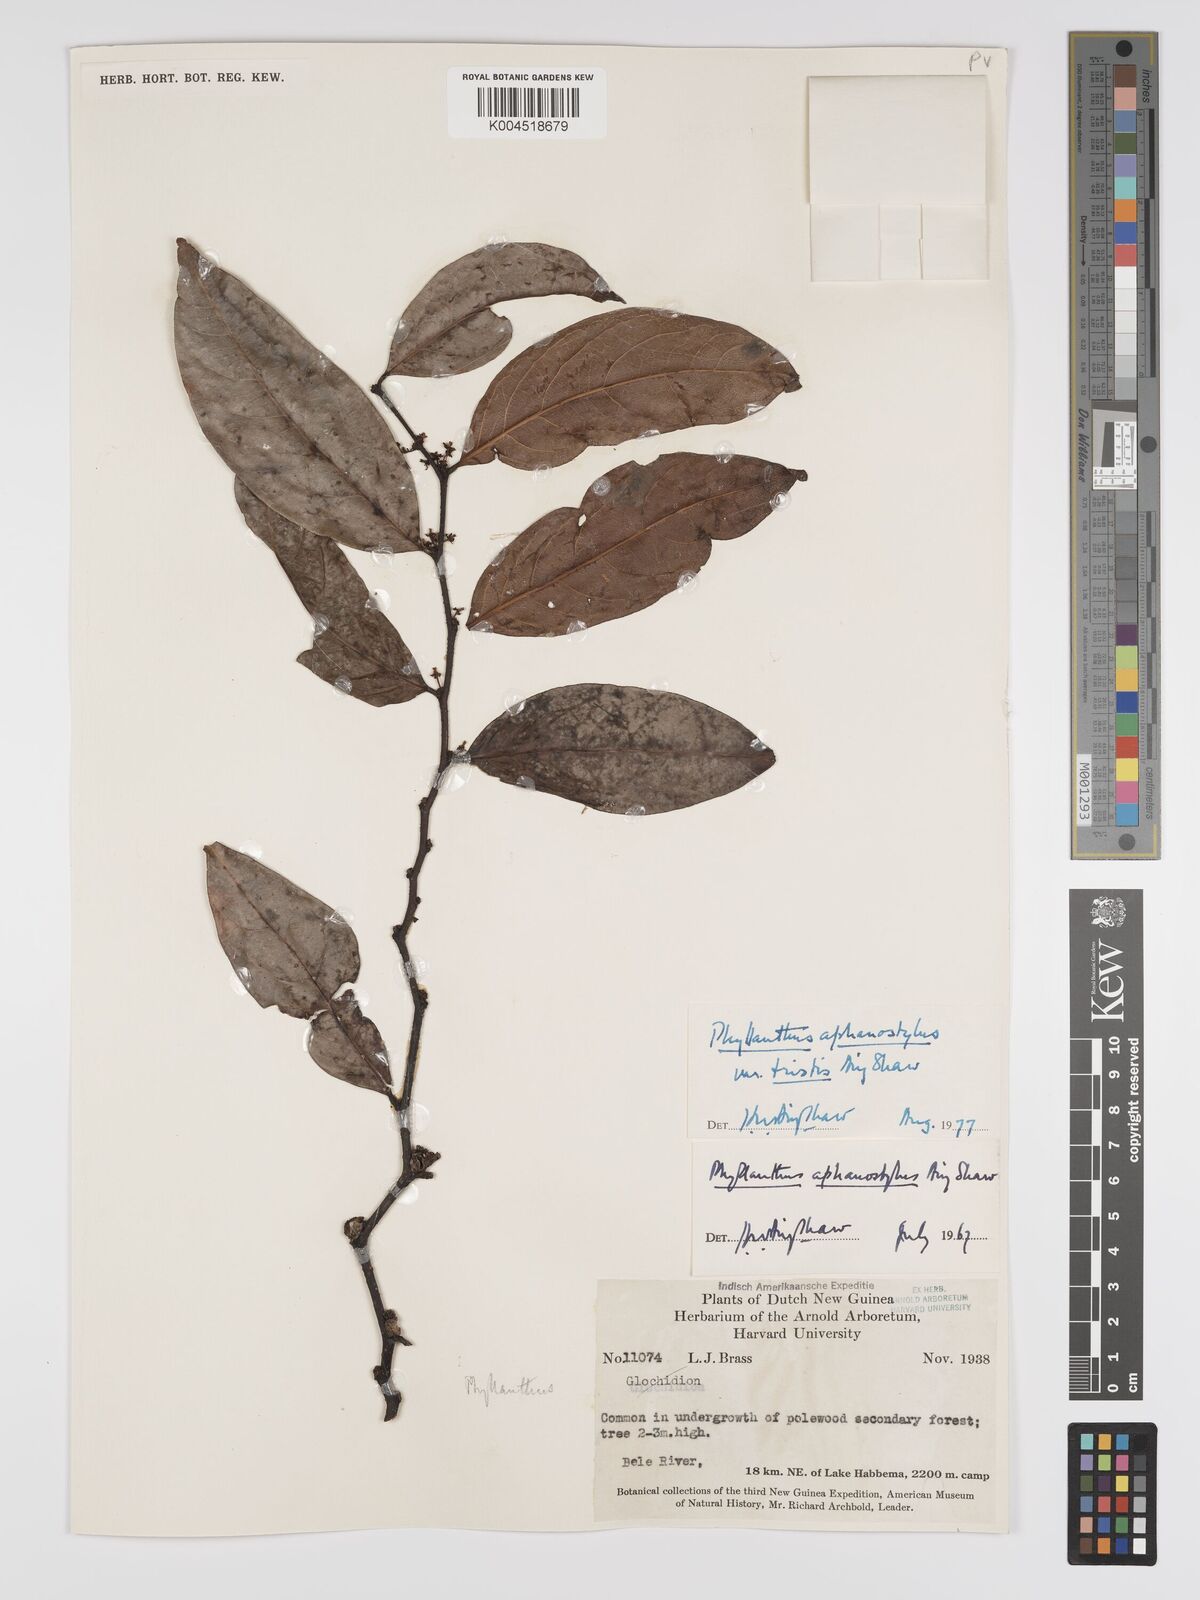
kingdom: Plantae
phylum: Tracheophyta
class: Magnoliopsida
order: Malpighiales
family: Phyllanthaceae
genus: Phyllanthus
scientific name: Phyllanthus aphanostylus
